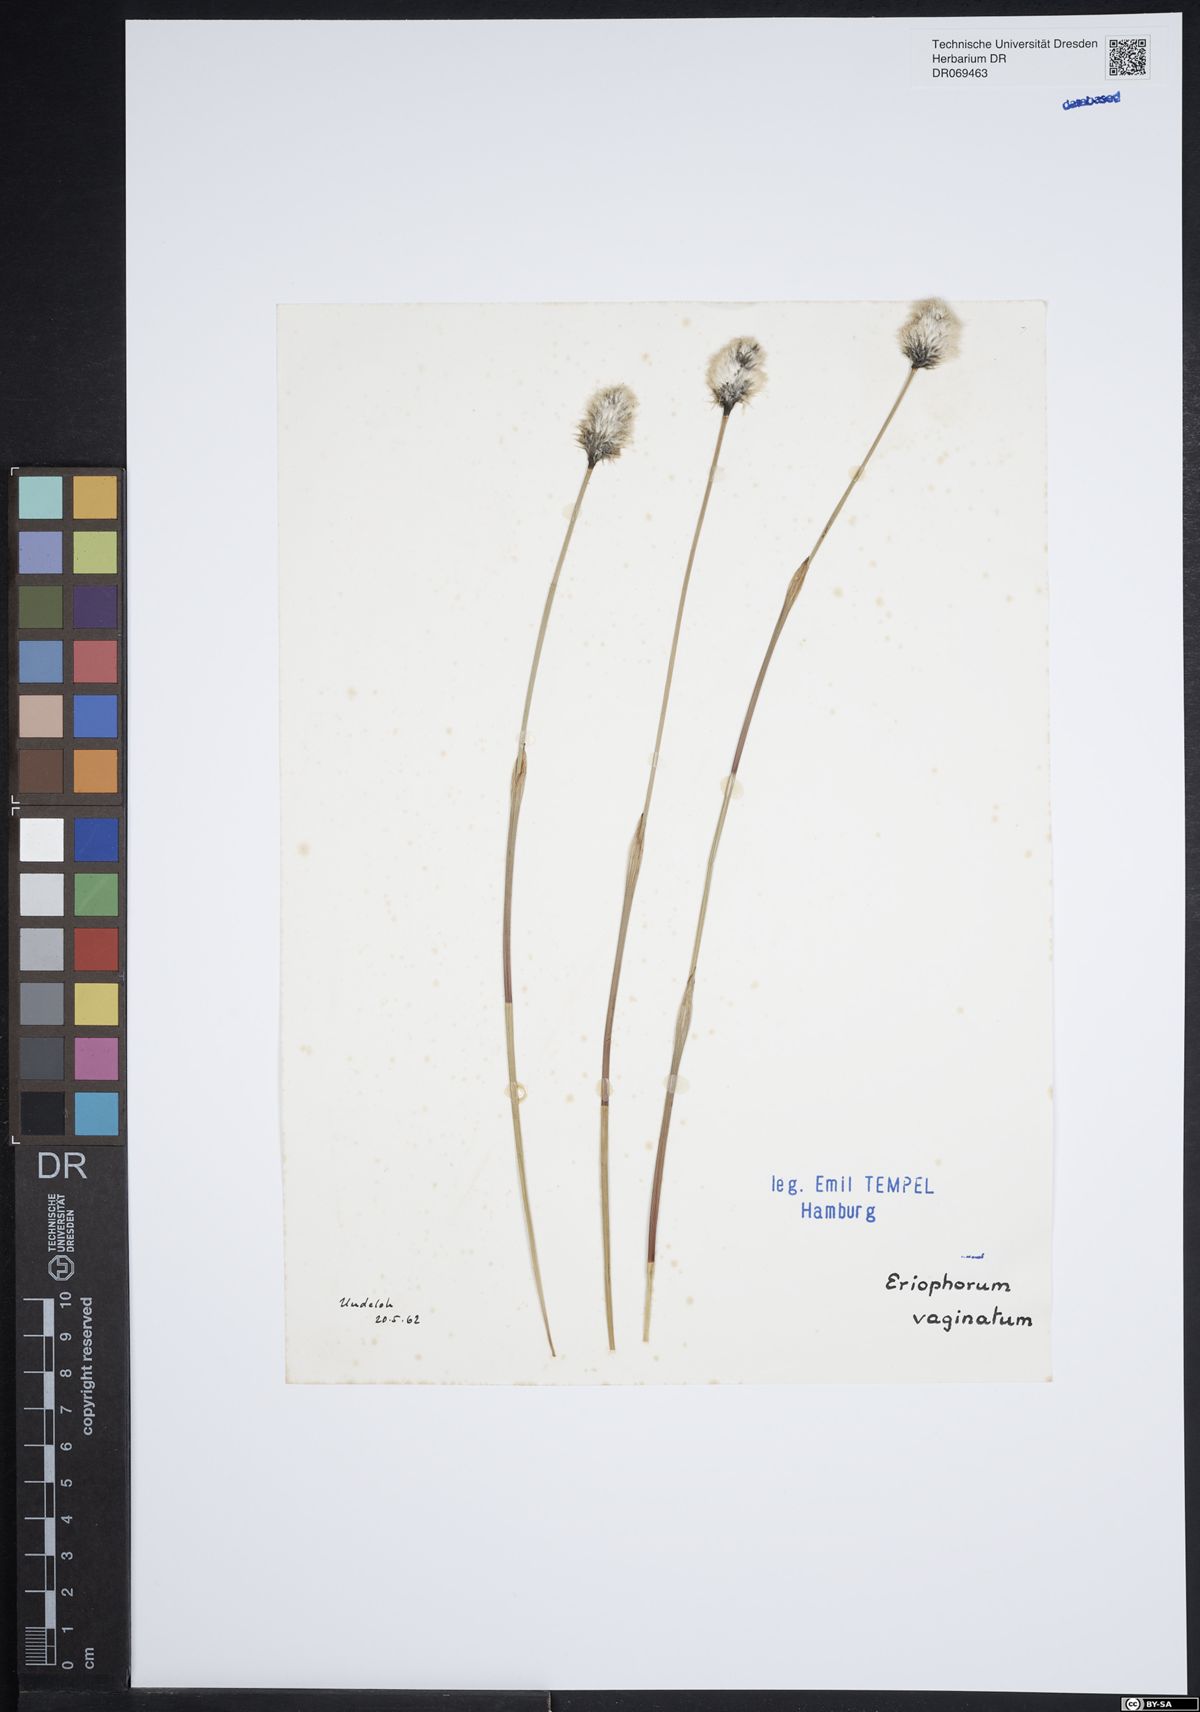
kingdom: Plantae
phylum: Tracheophyta
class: Liliopsida
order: Poales
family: Cyperaceae
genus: Eriophorum
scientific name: Eriophorum vaginatum
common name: Hare's-tail cottongrass
